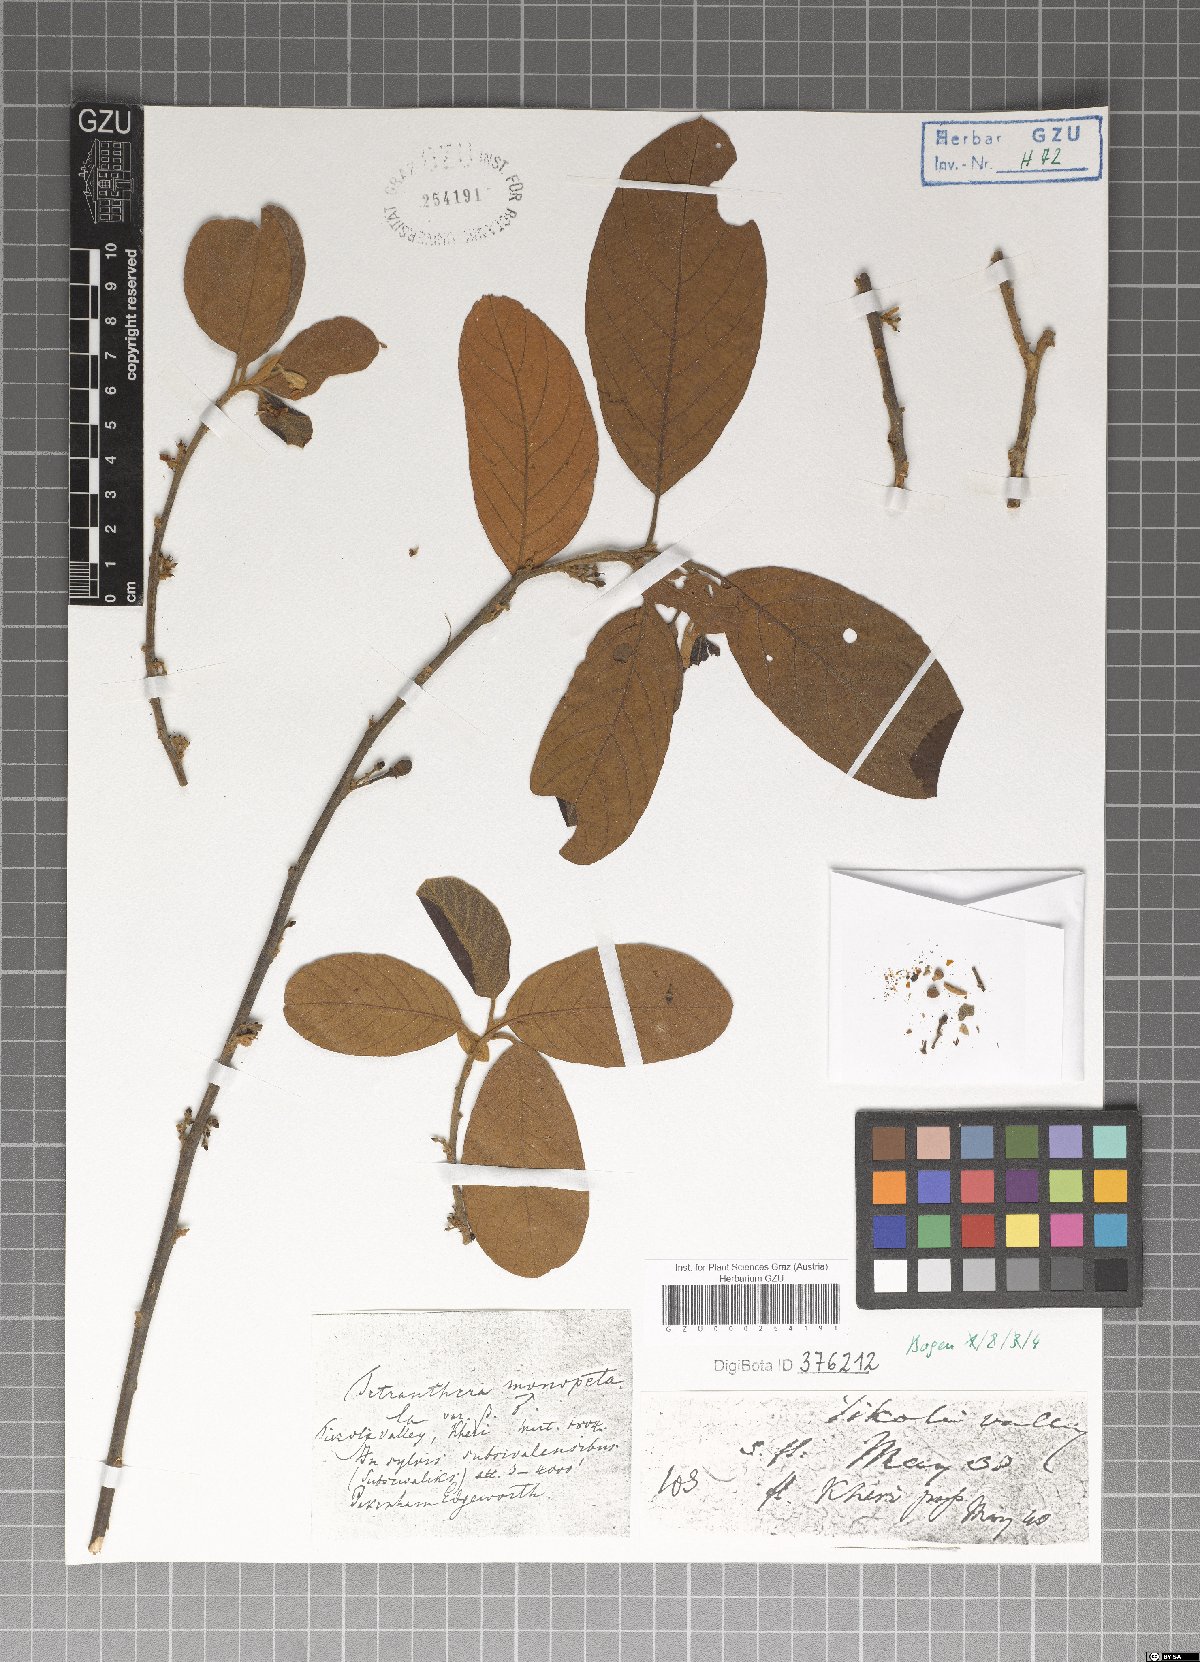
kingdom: Plantae
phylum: Tracheophyta
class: Magnoliopsida
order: Laurales
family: Lauraceae
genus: Litsea
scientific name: Litsea monopetala
